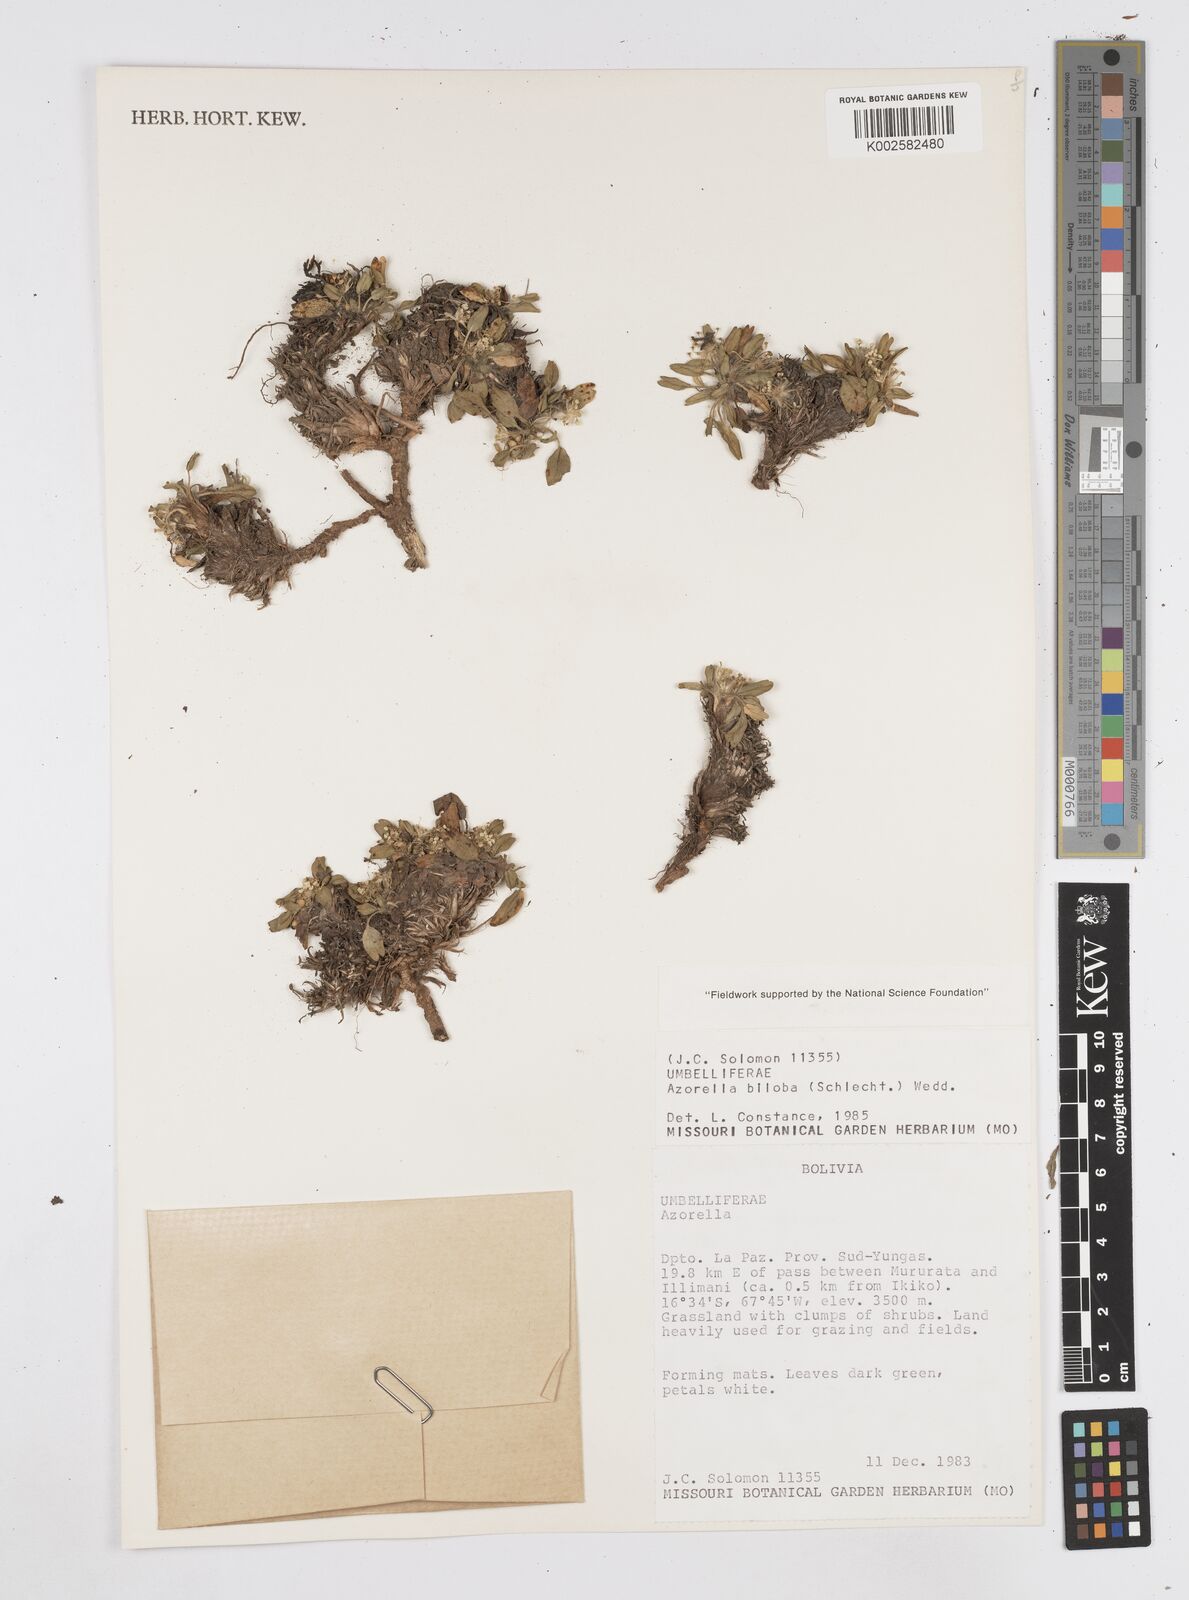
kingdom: Plantae
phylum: Tracheophyta
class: Magnoliopsida
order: Apiales
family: Apiaceae
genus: Azorella
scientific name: Azorella biloba
